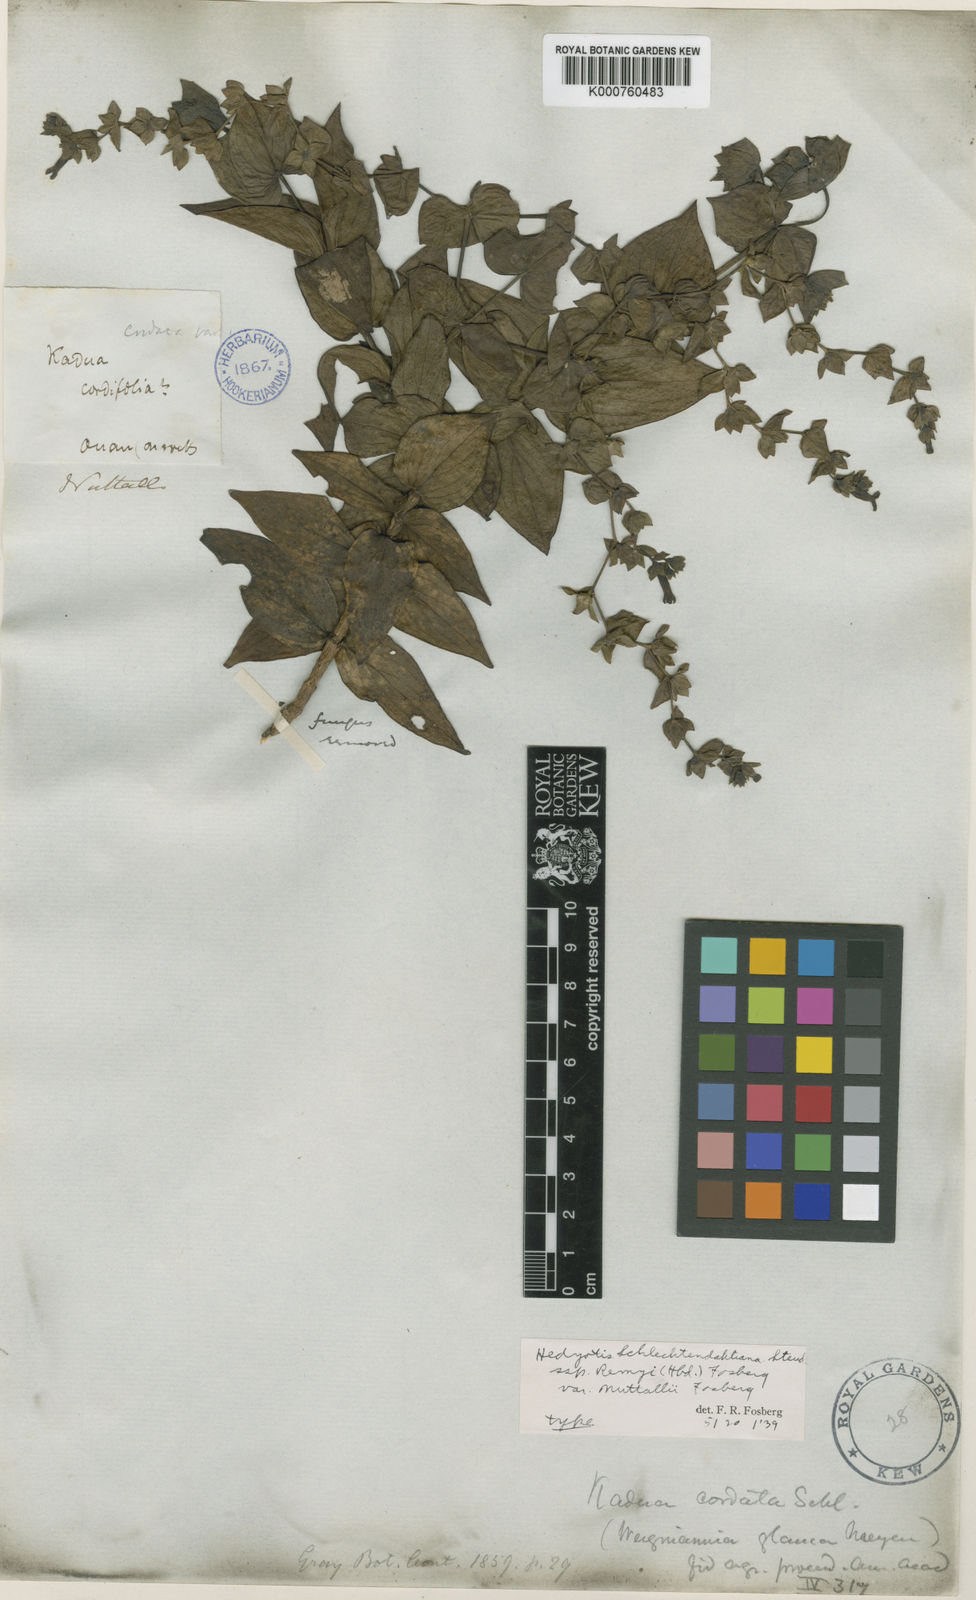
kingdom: Plantae
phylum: Tracheophyta
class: Magnoliopsida
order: Gentianales
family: Rubiaceae
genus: Kadua
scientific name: Kadua cordata
